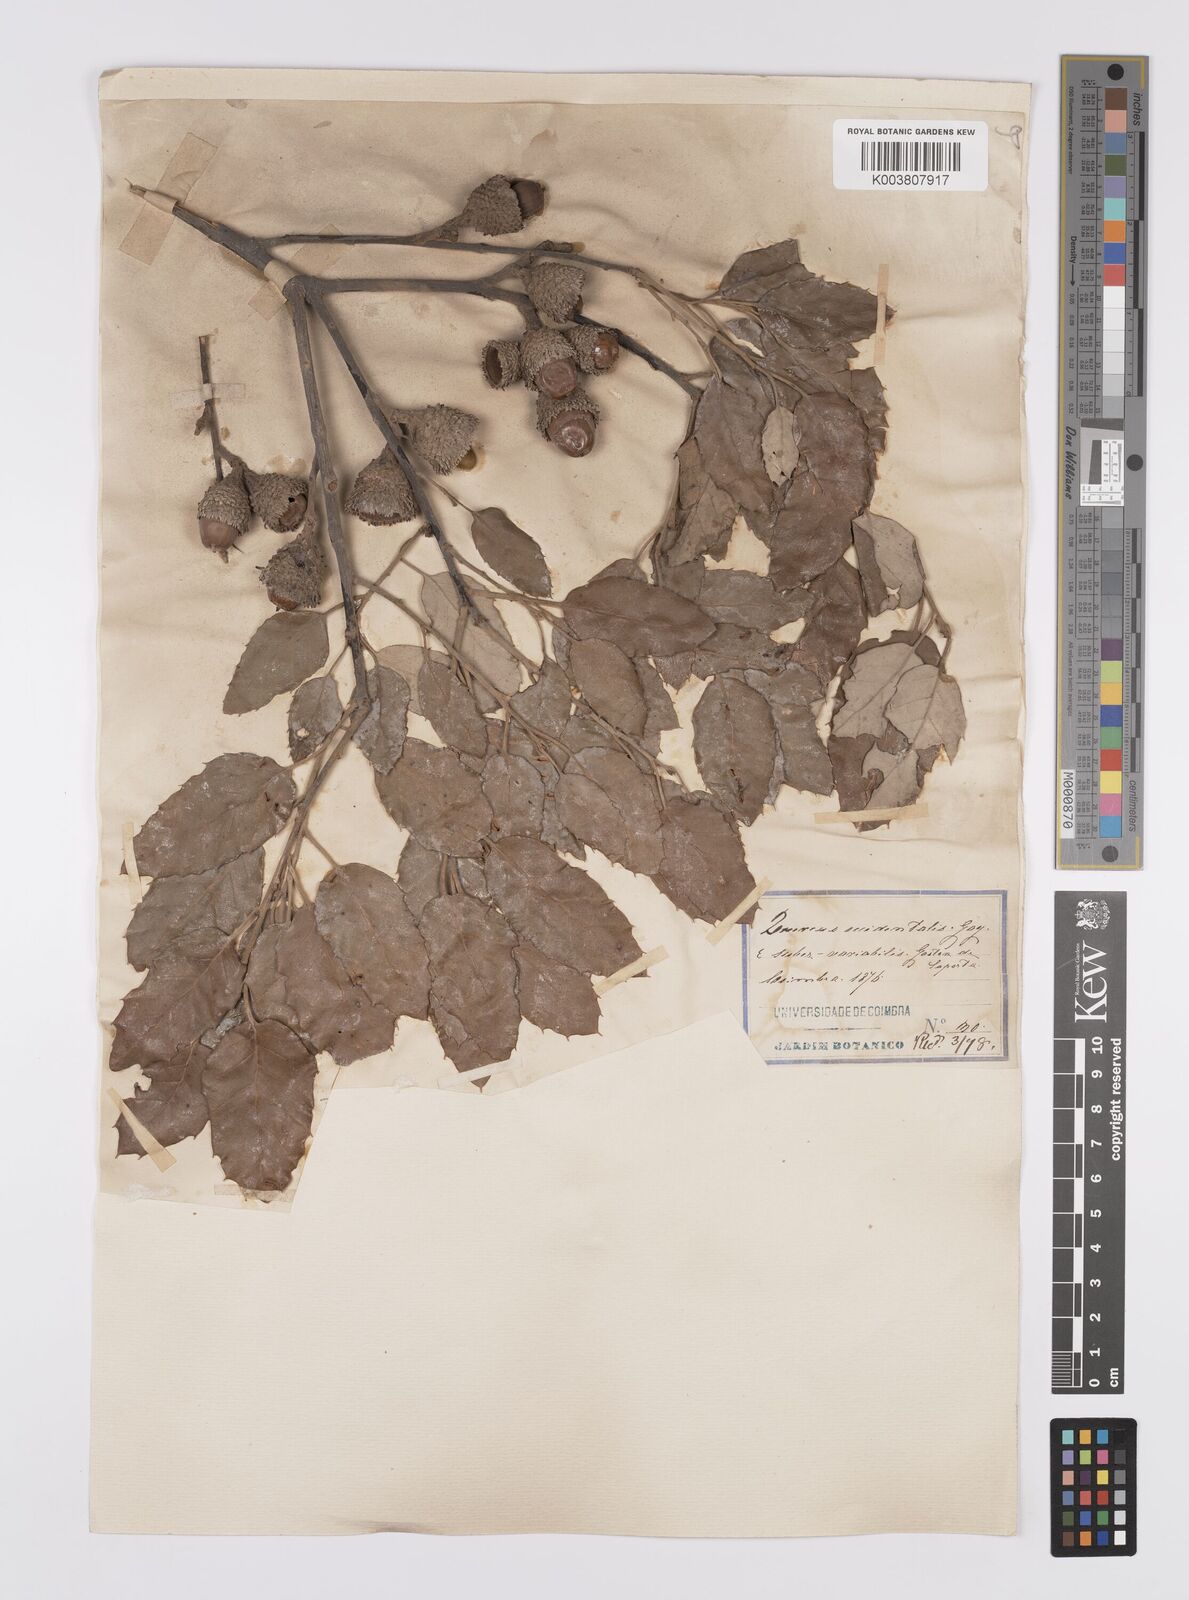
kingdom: Plantae
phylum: Tracheophyta
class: Magnoliopsida
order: Fagales
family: Fagaceae
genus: Quercus
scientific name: Quercus suber
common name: Cork oak
